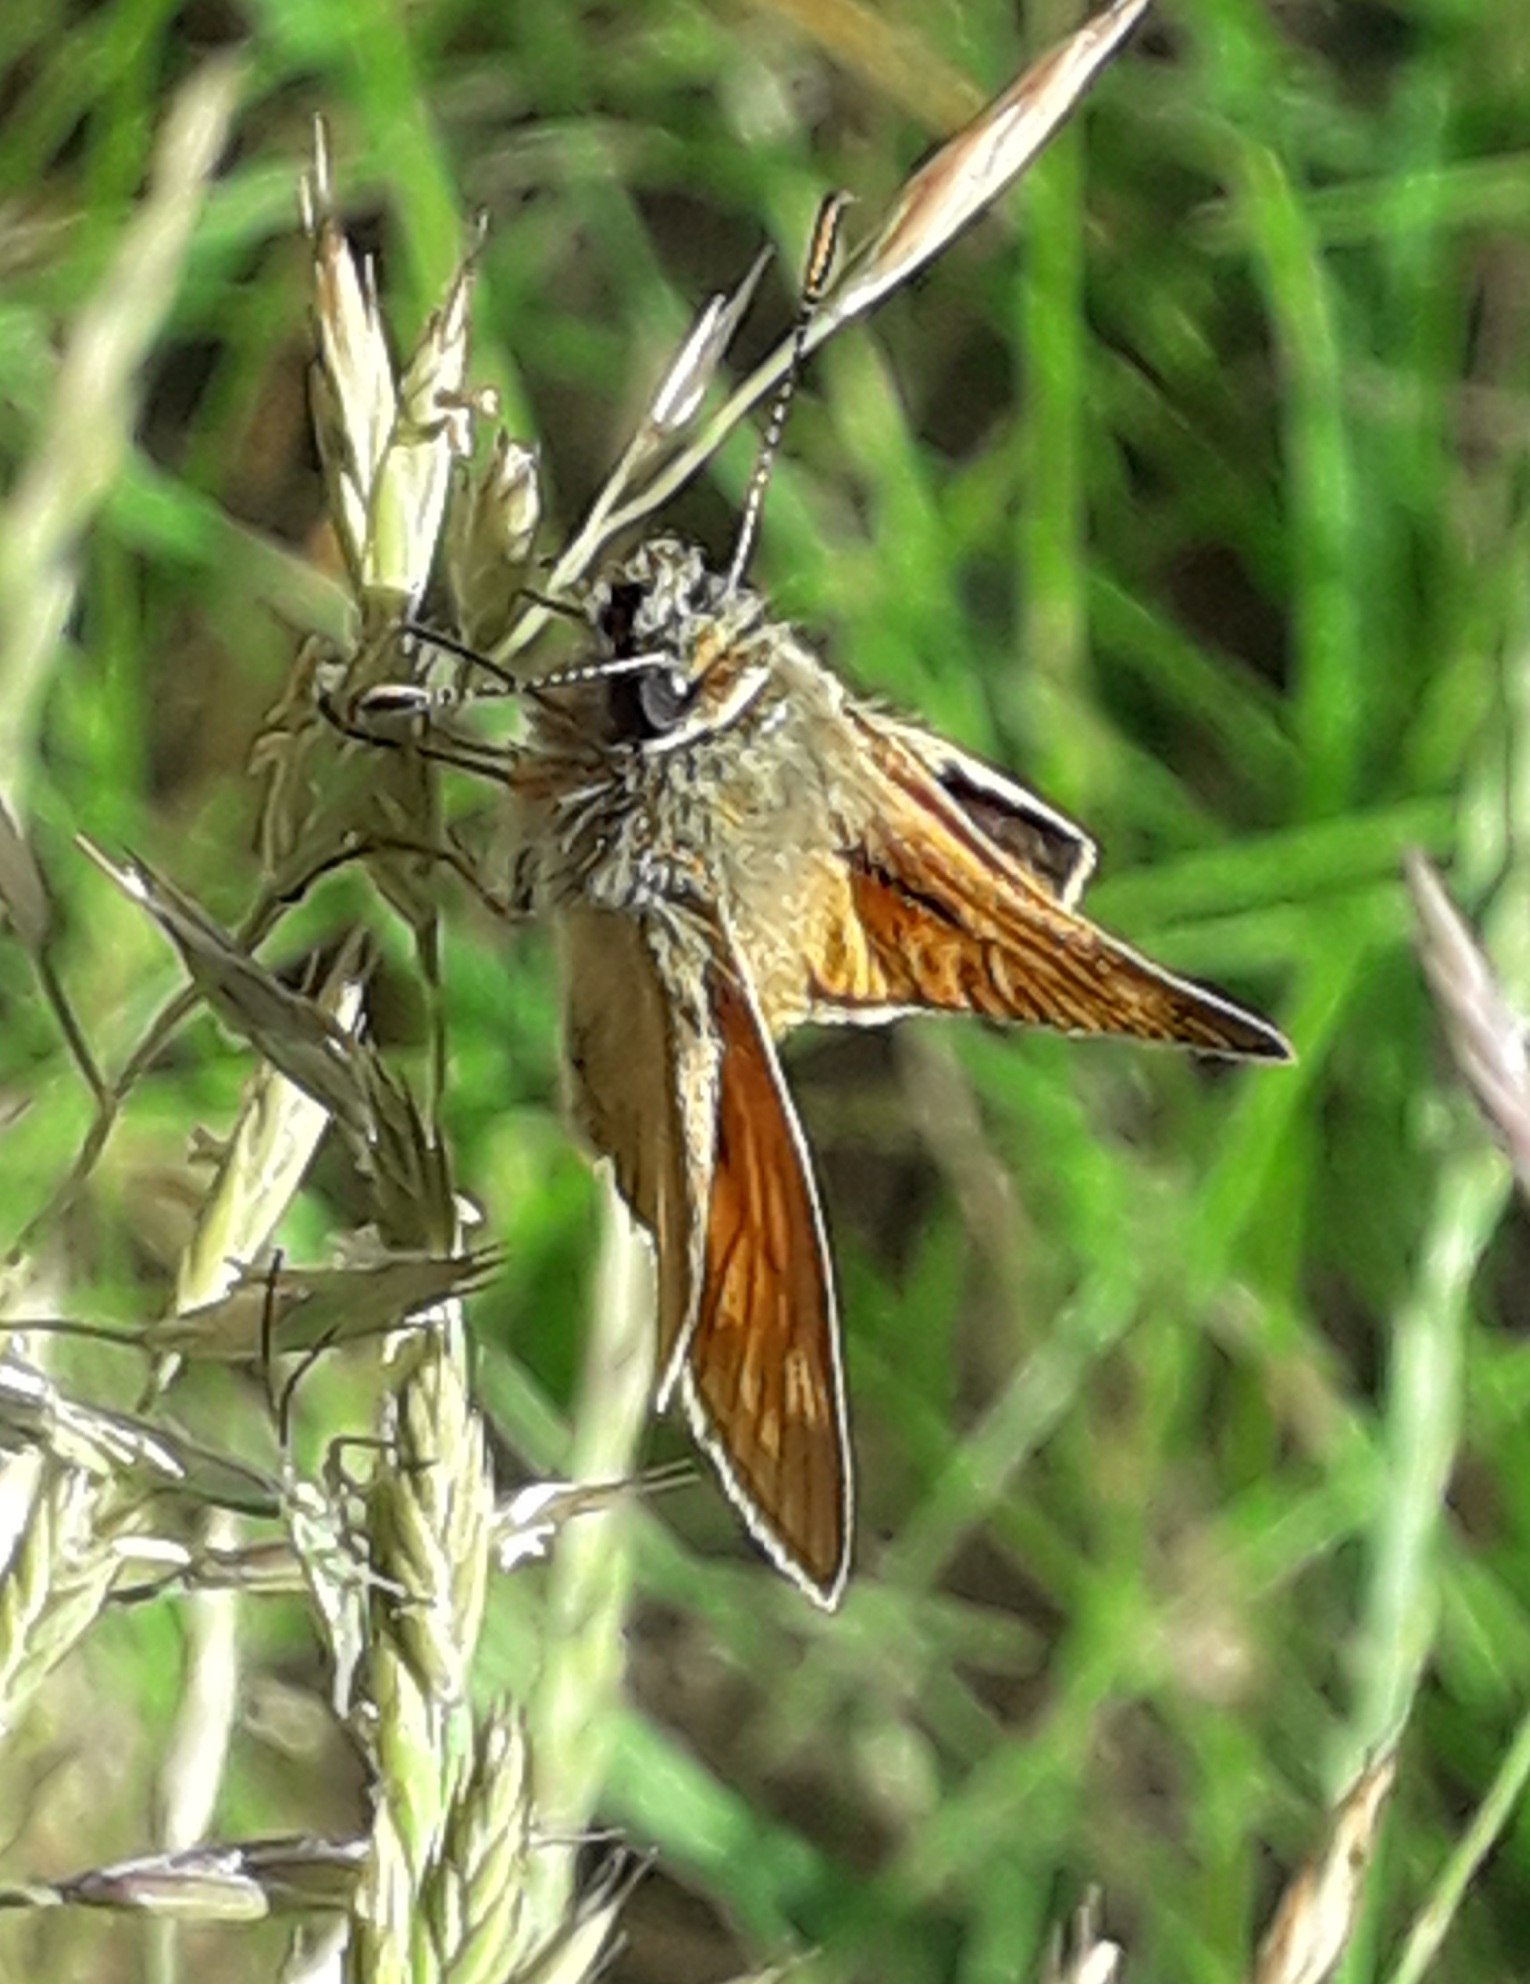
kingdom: Animalia
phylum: Arthropoda
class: Insecta
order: Lepidoptera
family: Hesperiidae
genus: Ochlodes
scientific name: Ochlodes venata
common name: Stor bredpande
